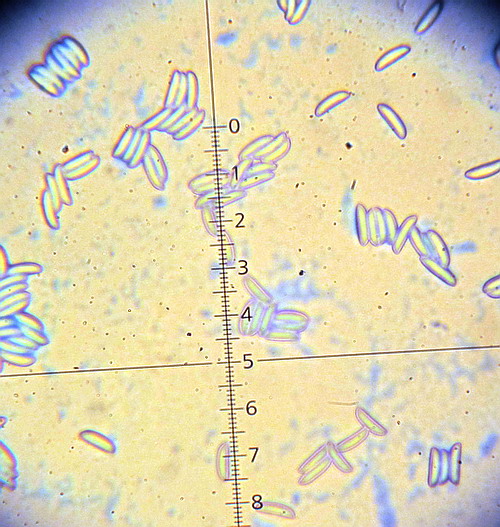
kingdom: Fungi
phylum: Ascomycota
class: Leotiomycetes
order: Rhytismatales
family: Rhytismataceae
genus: Lophodermium
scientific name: Lophodermium paeoniae
